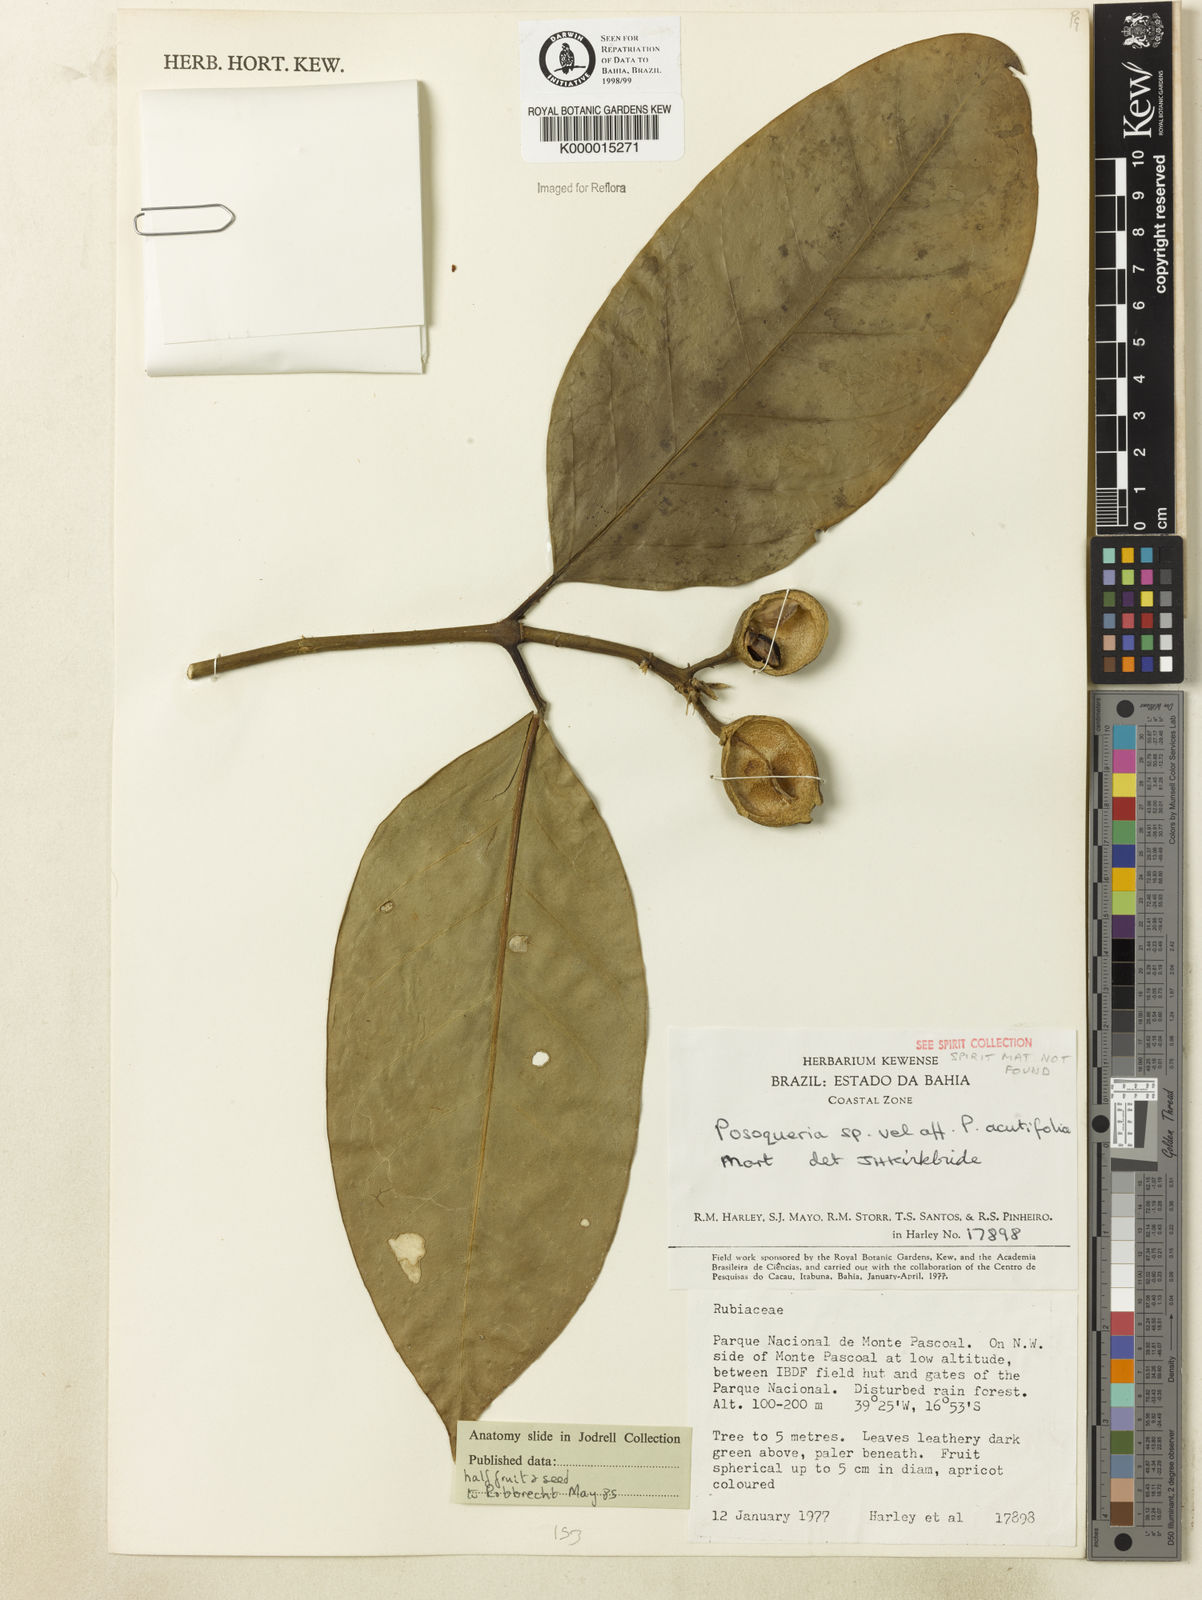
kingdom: Plantae
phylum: Tracheophyta
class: Magnoliopsida
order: Gentianales
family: Rubiaceae
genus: Posoqueria
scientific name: Posoqueria acutifolia
